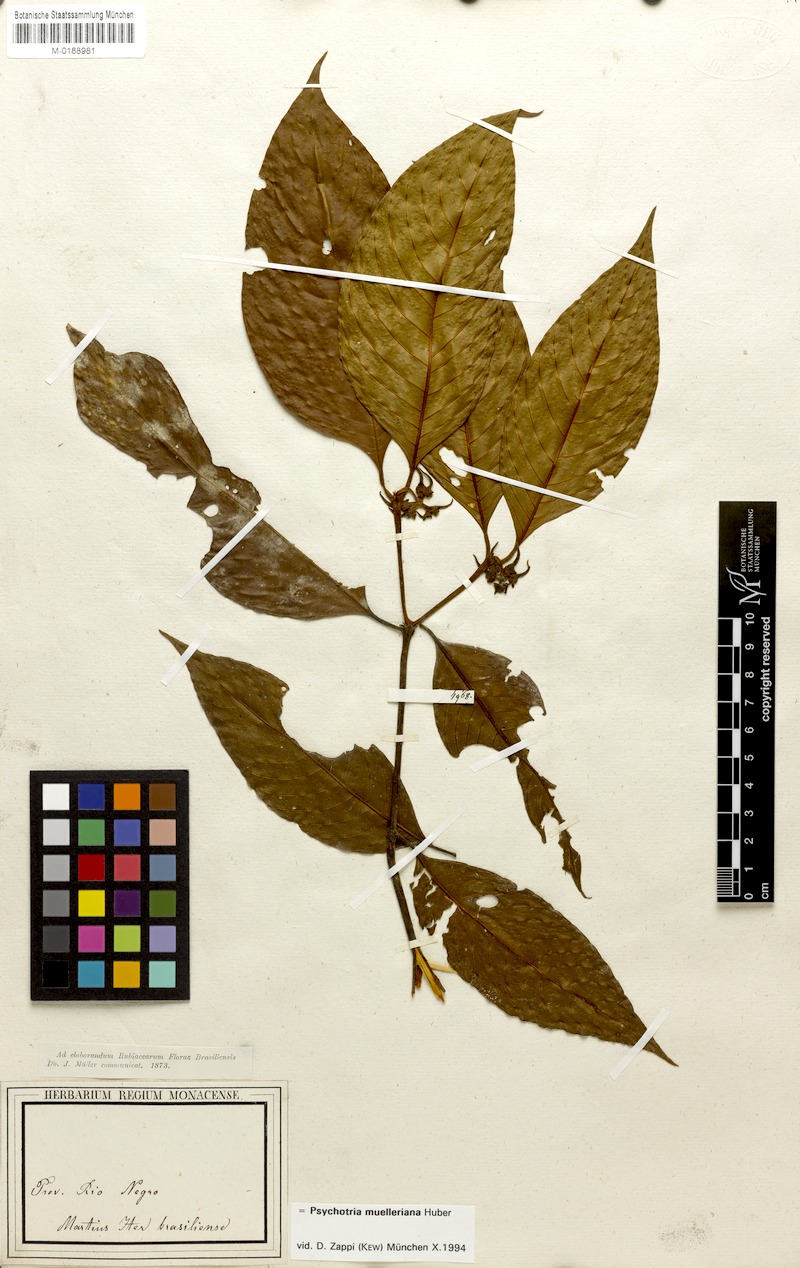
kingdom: Plantae
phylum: Tracheophyta
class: Magnoliopsida
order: Gentianales
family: Rubiaceae
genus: Palicourea
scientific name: Palicourea iodotricha
